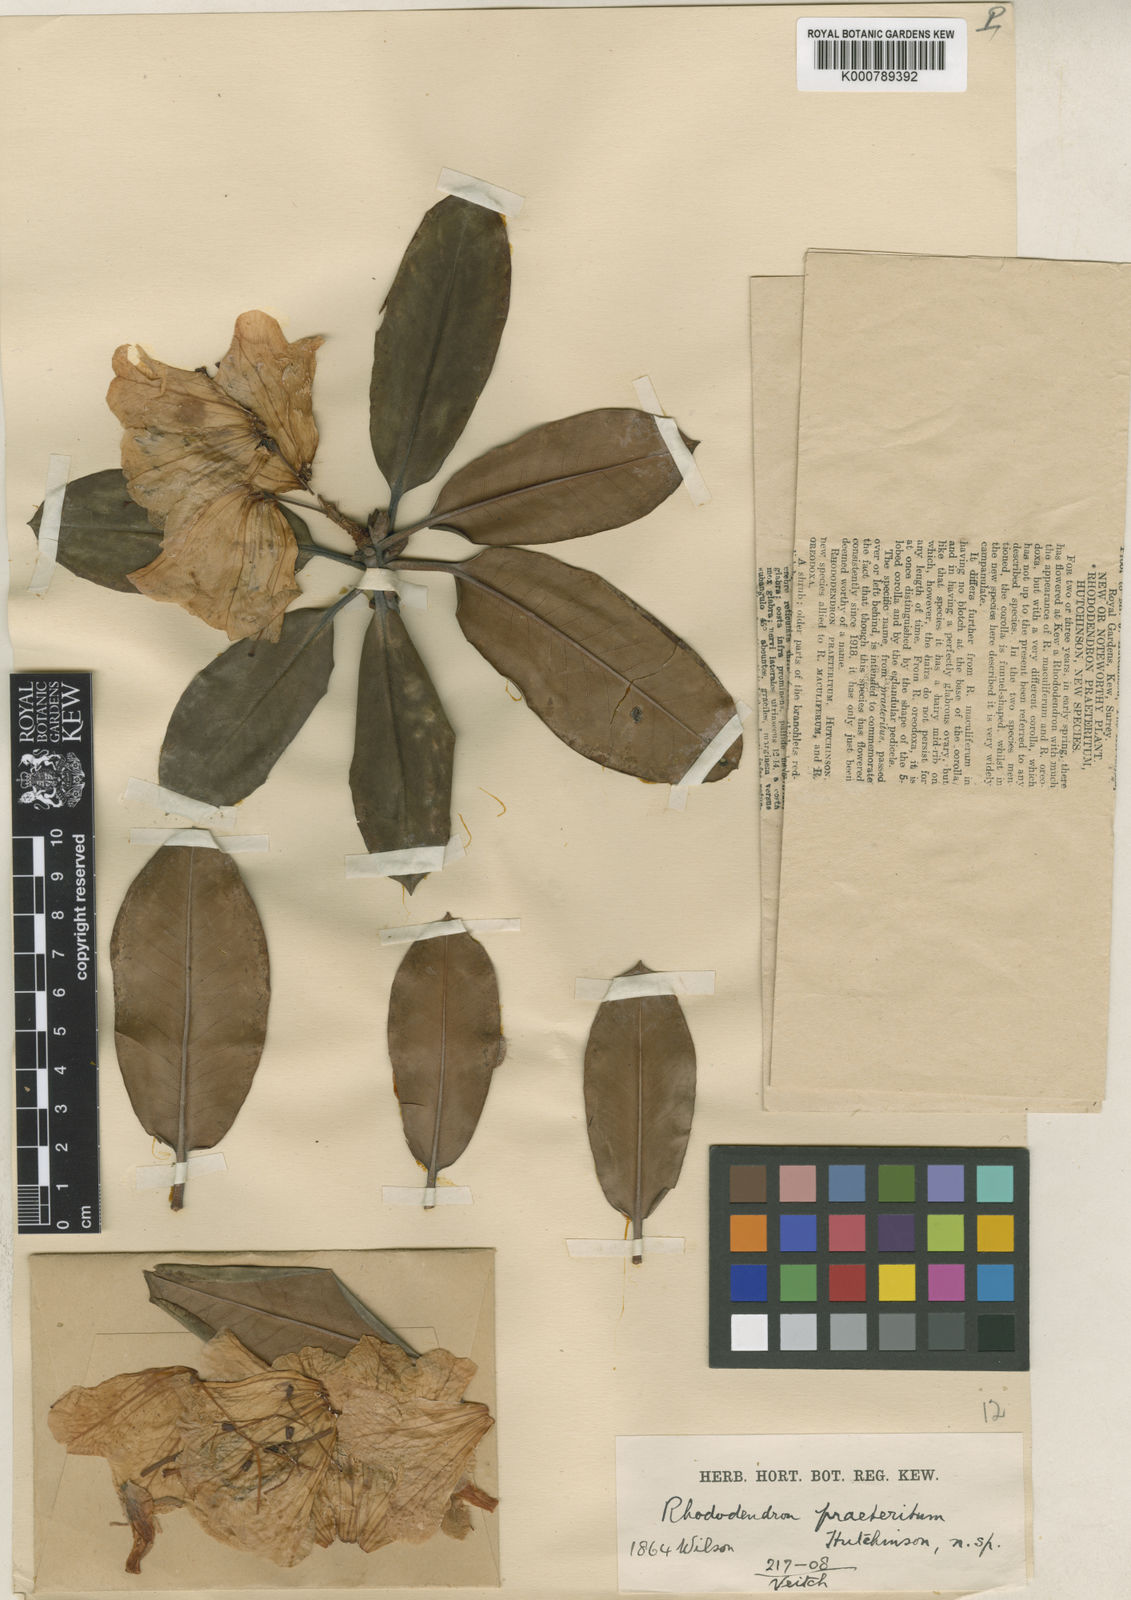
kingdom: Plantae
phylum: Tracheophyta
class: Magnoliopsida
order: Ericales
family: Ericaceae
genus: Rhododendron
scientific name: Rhododendron
